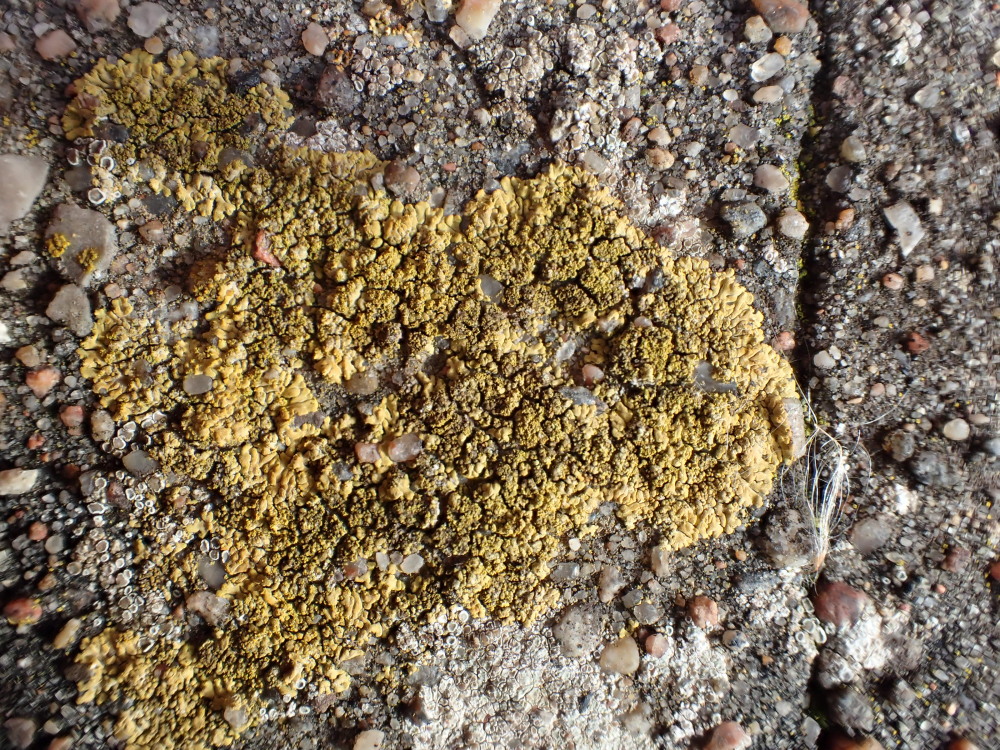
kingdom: Fungi
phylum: Ascomycota
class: Lecanoromycetes
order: Teloschistales
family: Teloschistaceae
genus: Calogaya
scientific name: Calogaya decipiens
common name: knudret orangelav
